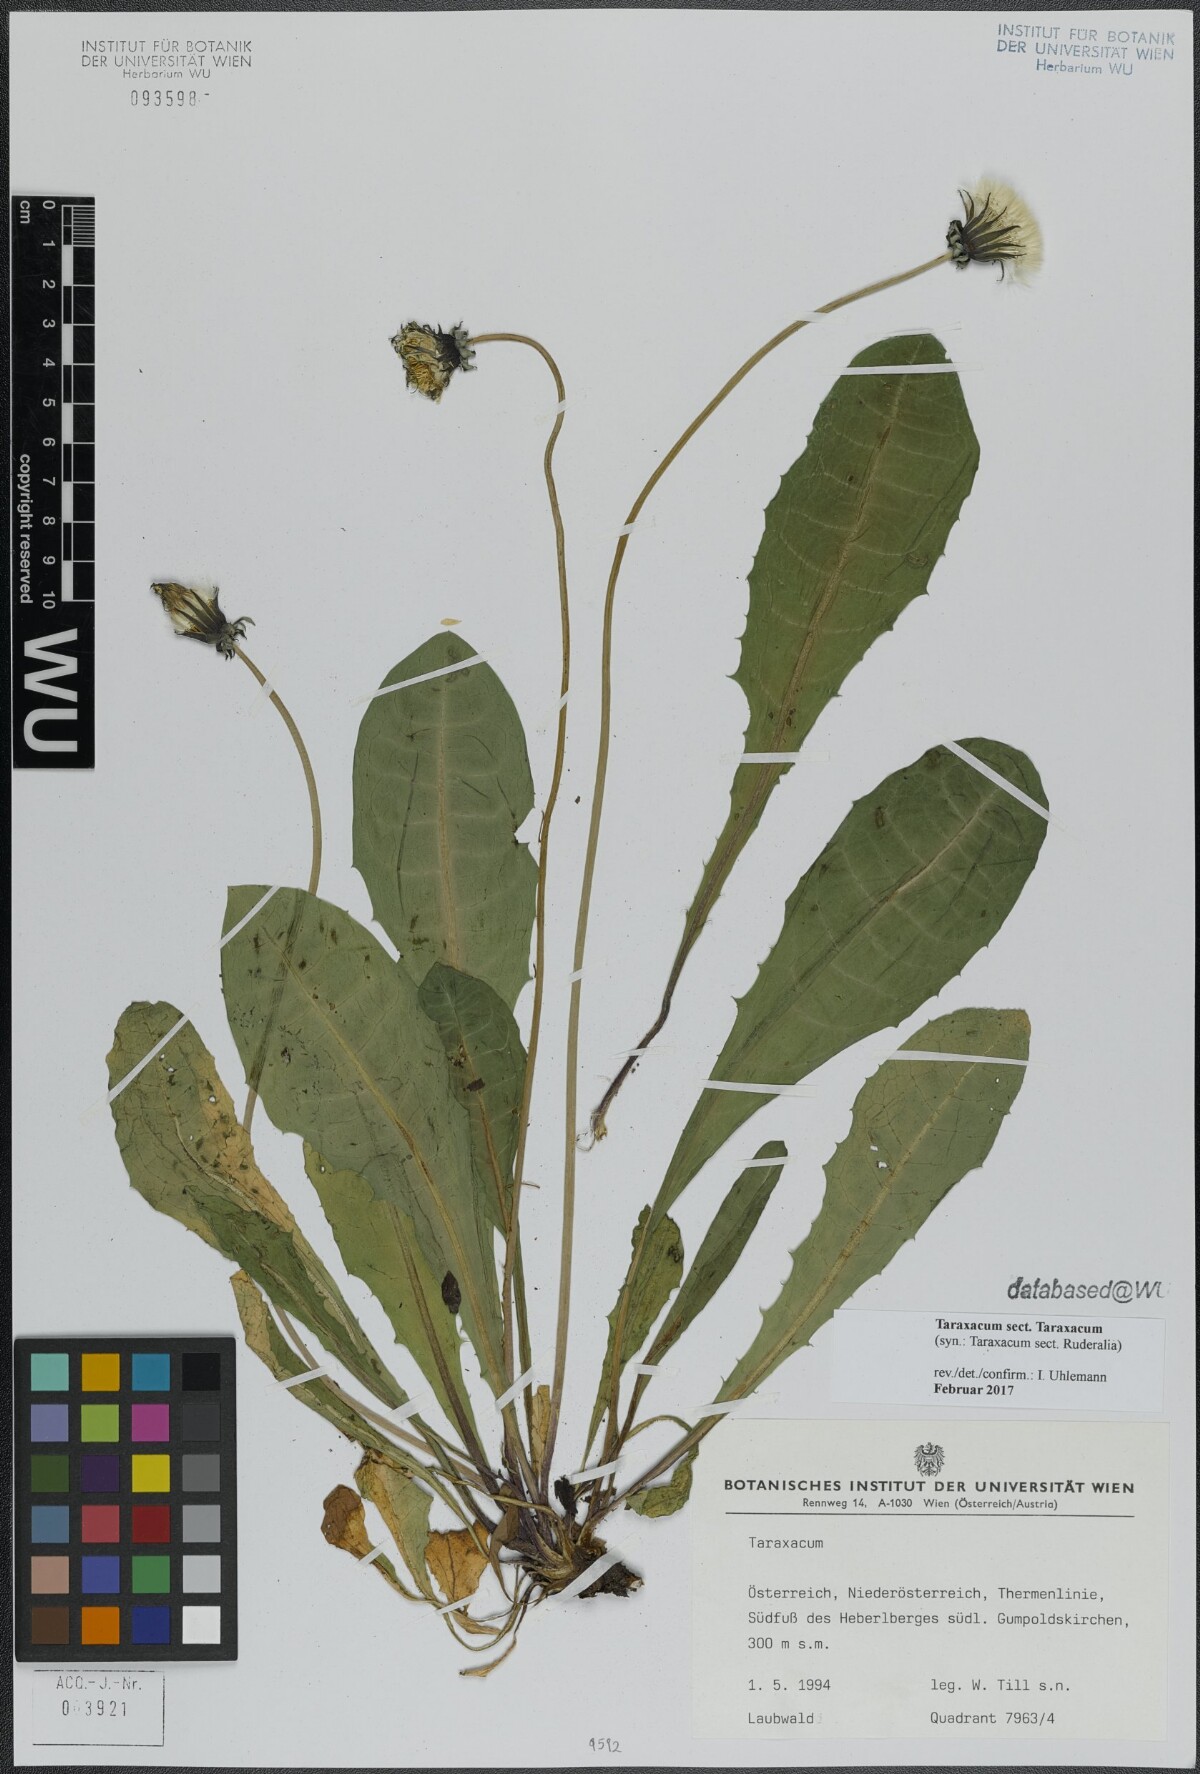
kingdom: Plantae
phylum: Tracheophyta
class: Magnoliopsida
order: Asterales
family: Asteraceae
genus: Taraxacum
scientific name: Taraxacum
